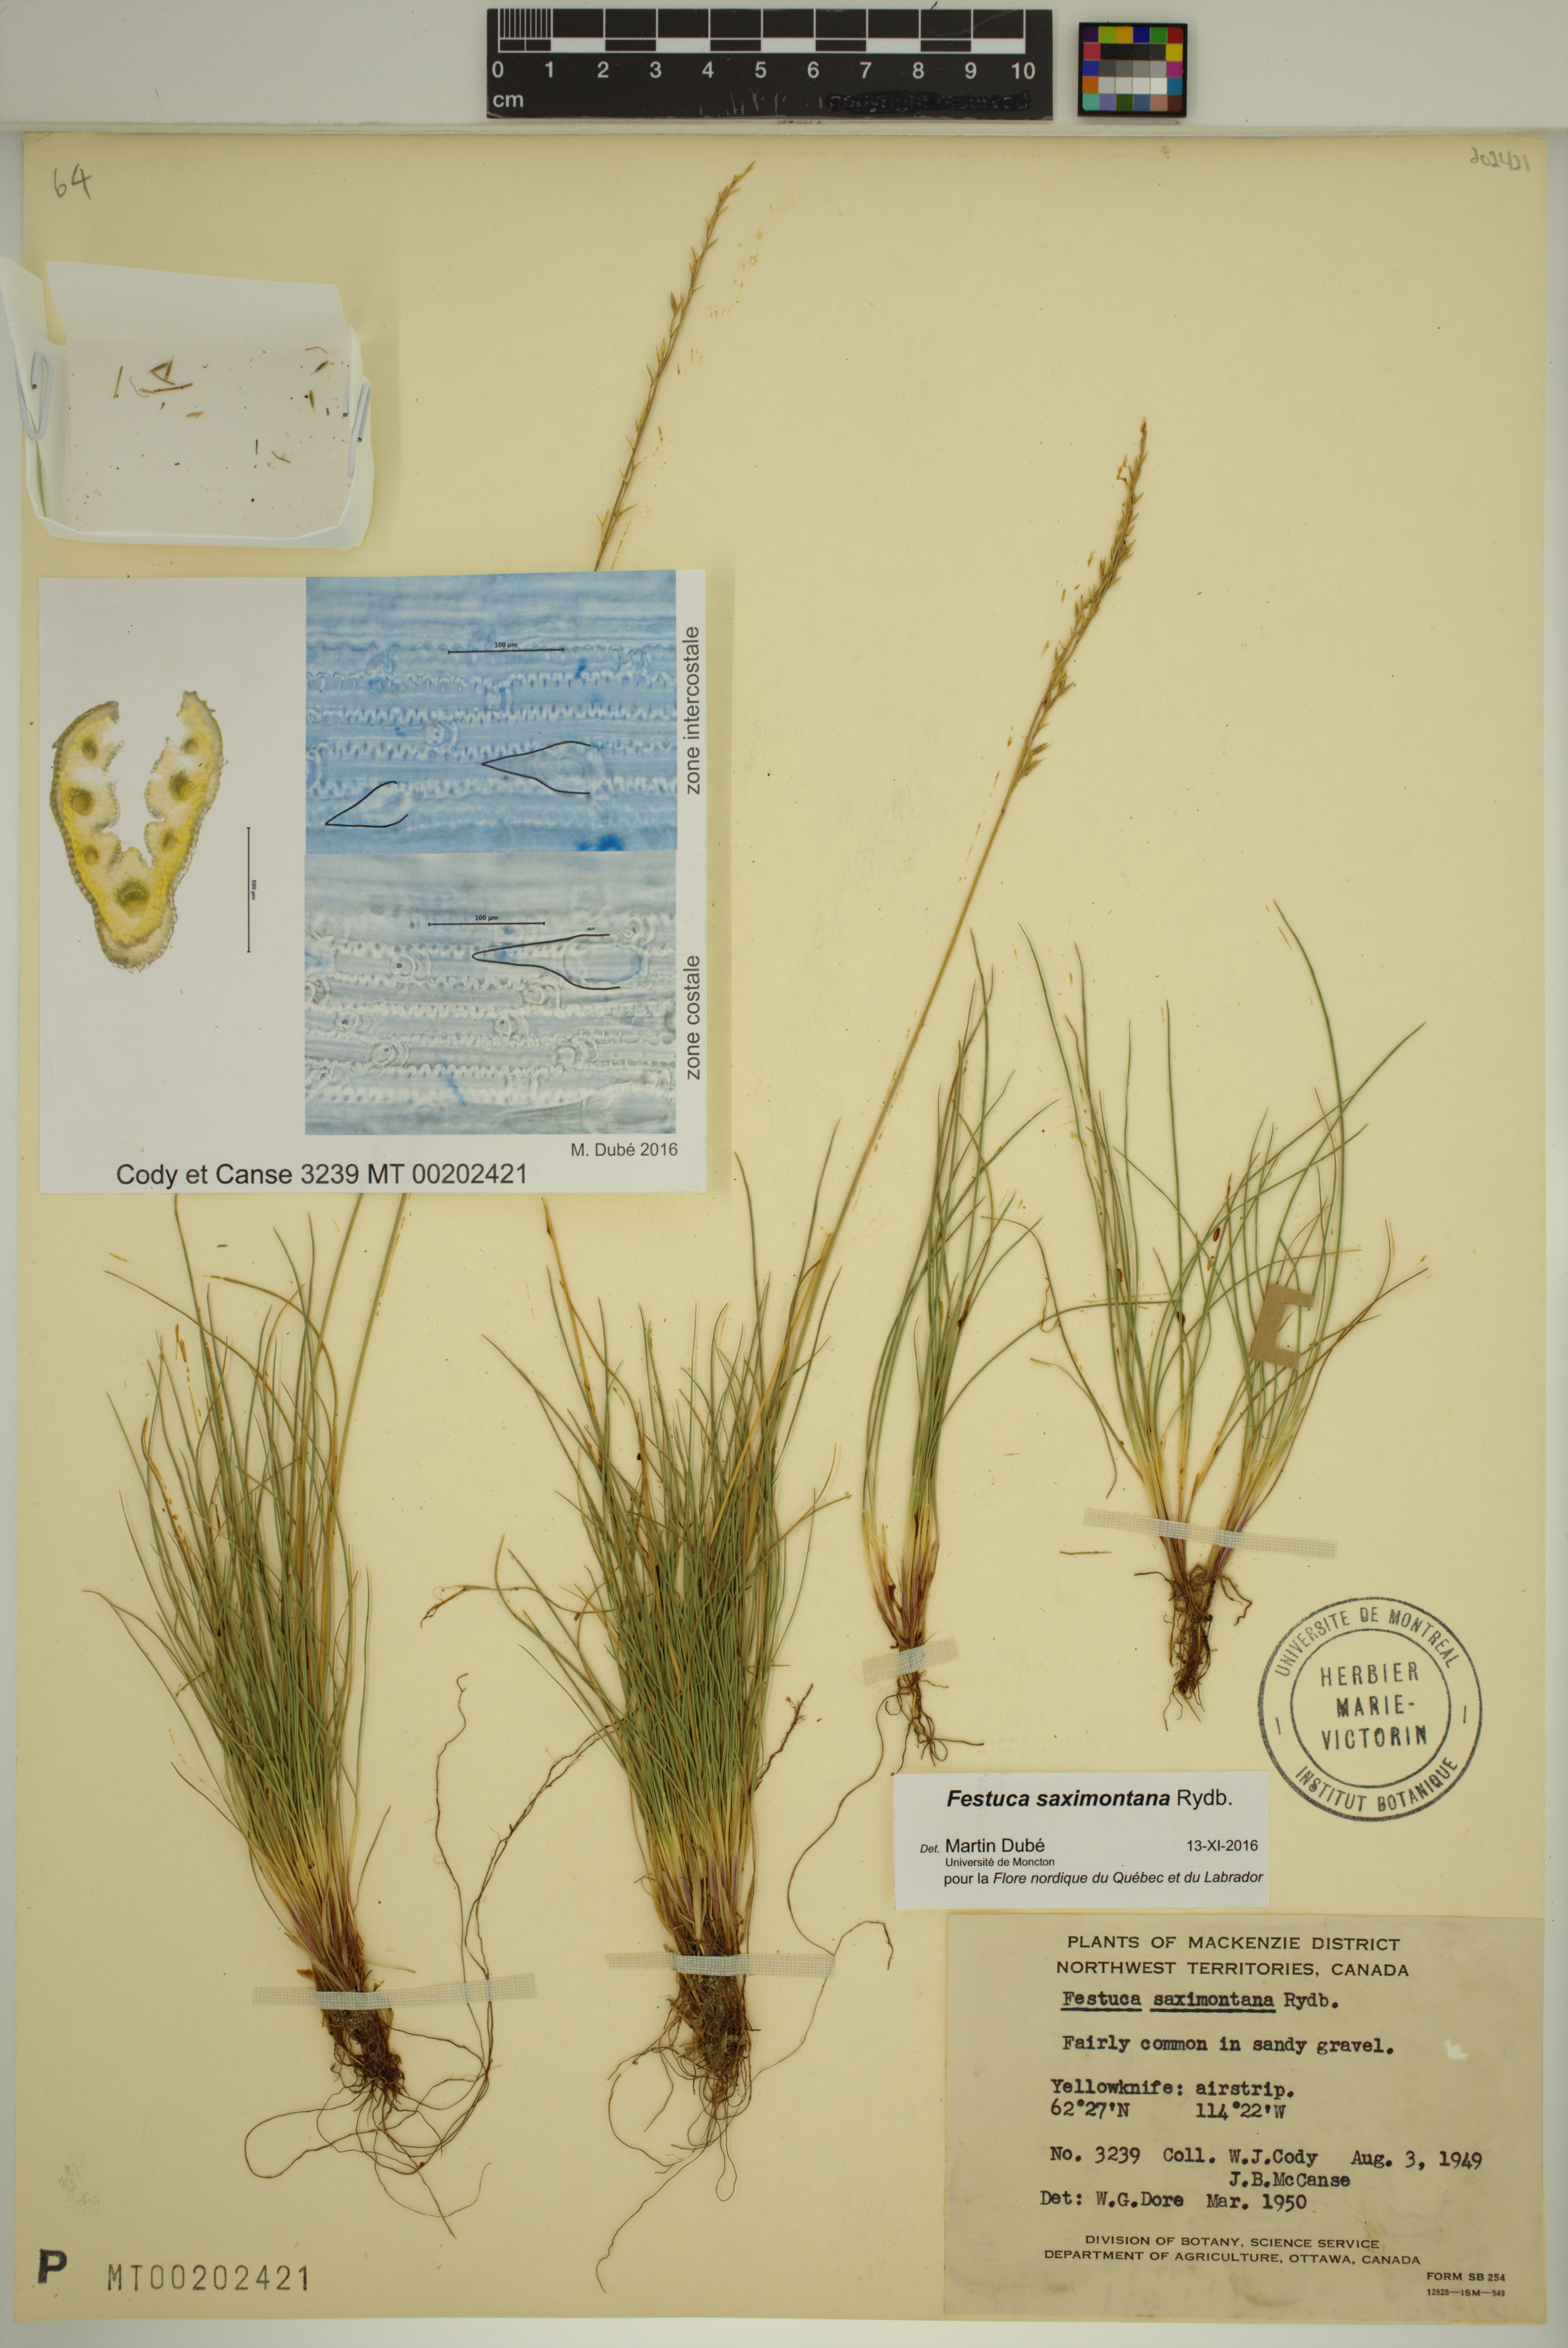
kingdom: Plantae
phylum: Tracheophyta
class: Liliopsida
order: Poales
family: Poaceae
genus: Festuca
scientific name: Festuca saximontana
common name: Mountain fescue
